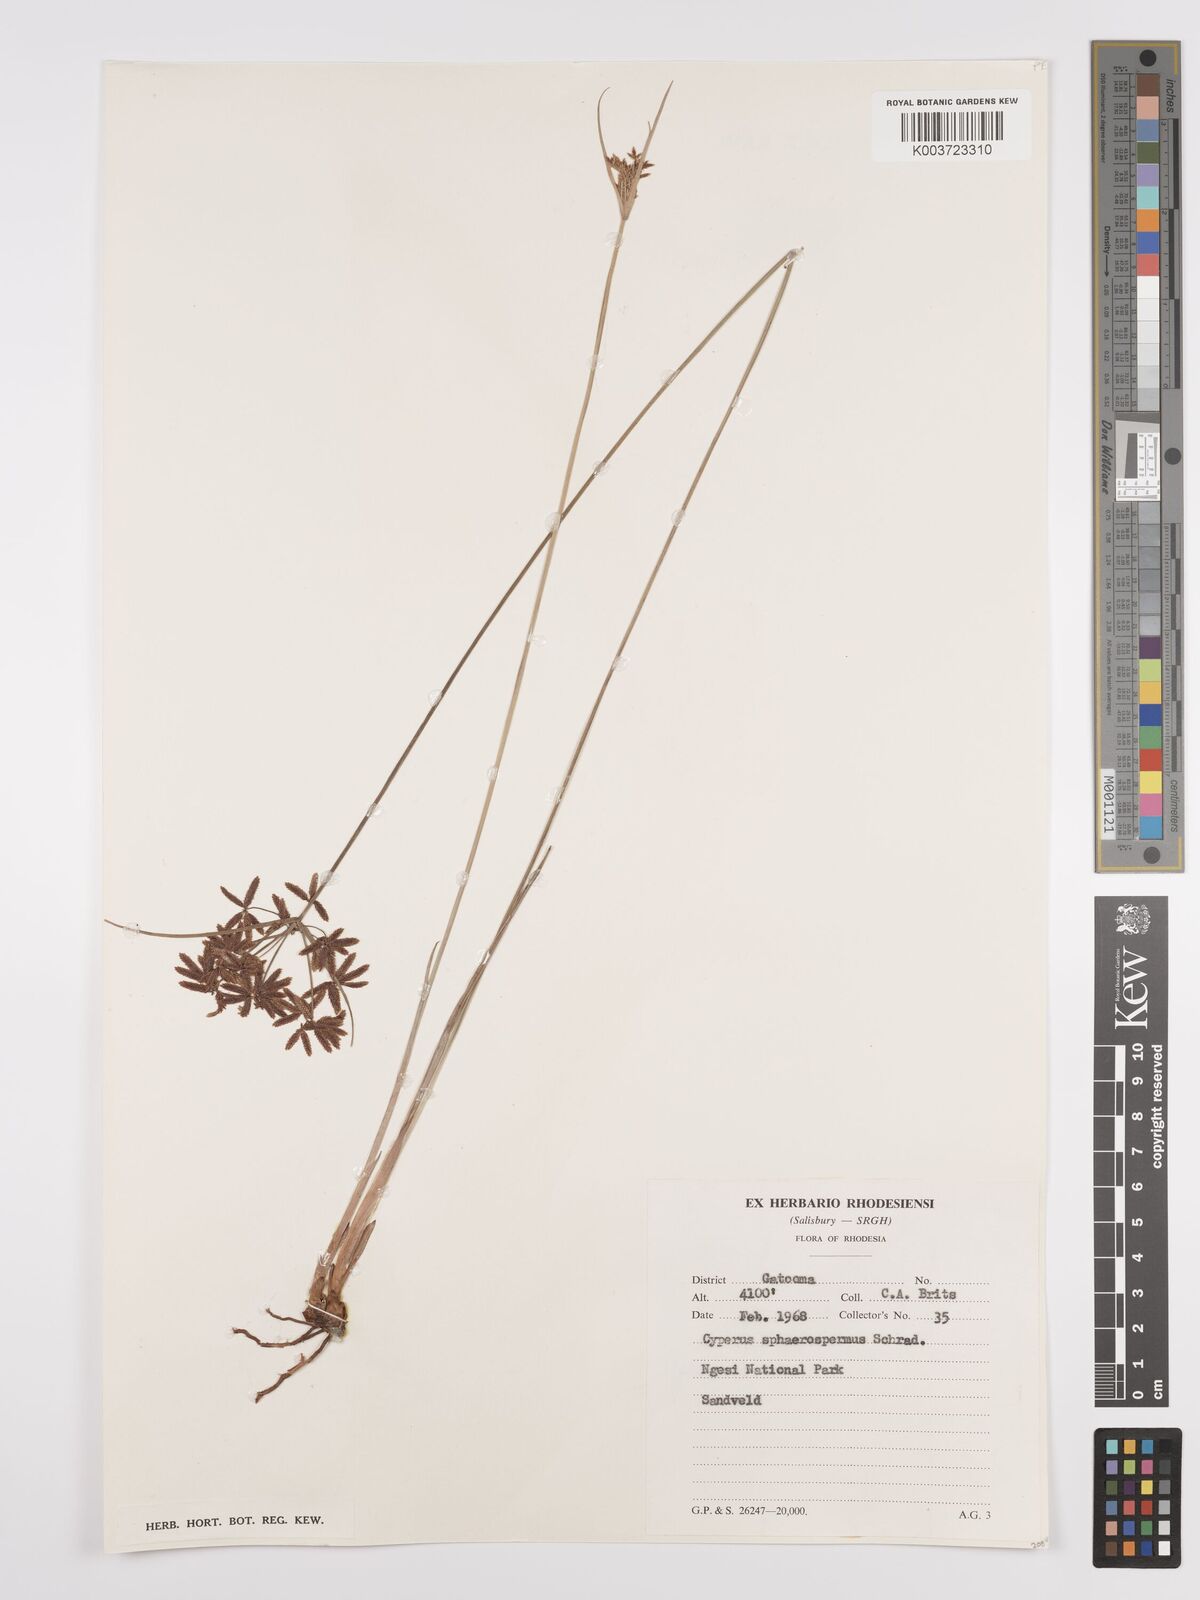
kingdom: Plantae
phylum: Tracheophyta
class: Liliopsida
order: Poales
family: Cyperaceae
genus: Cyperus
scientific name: Cyperus denudatus
